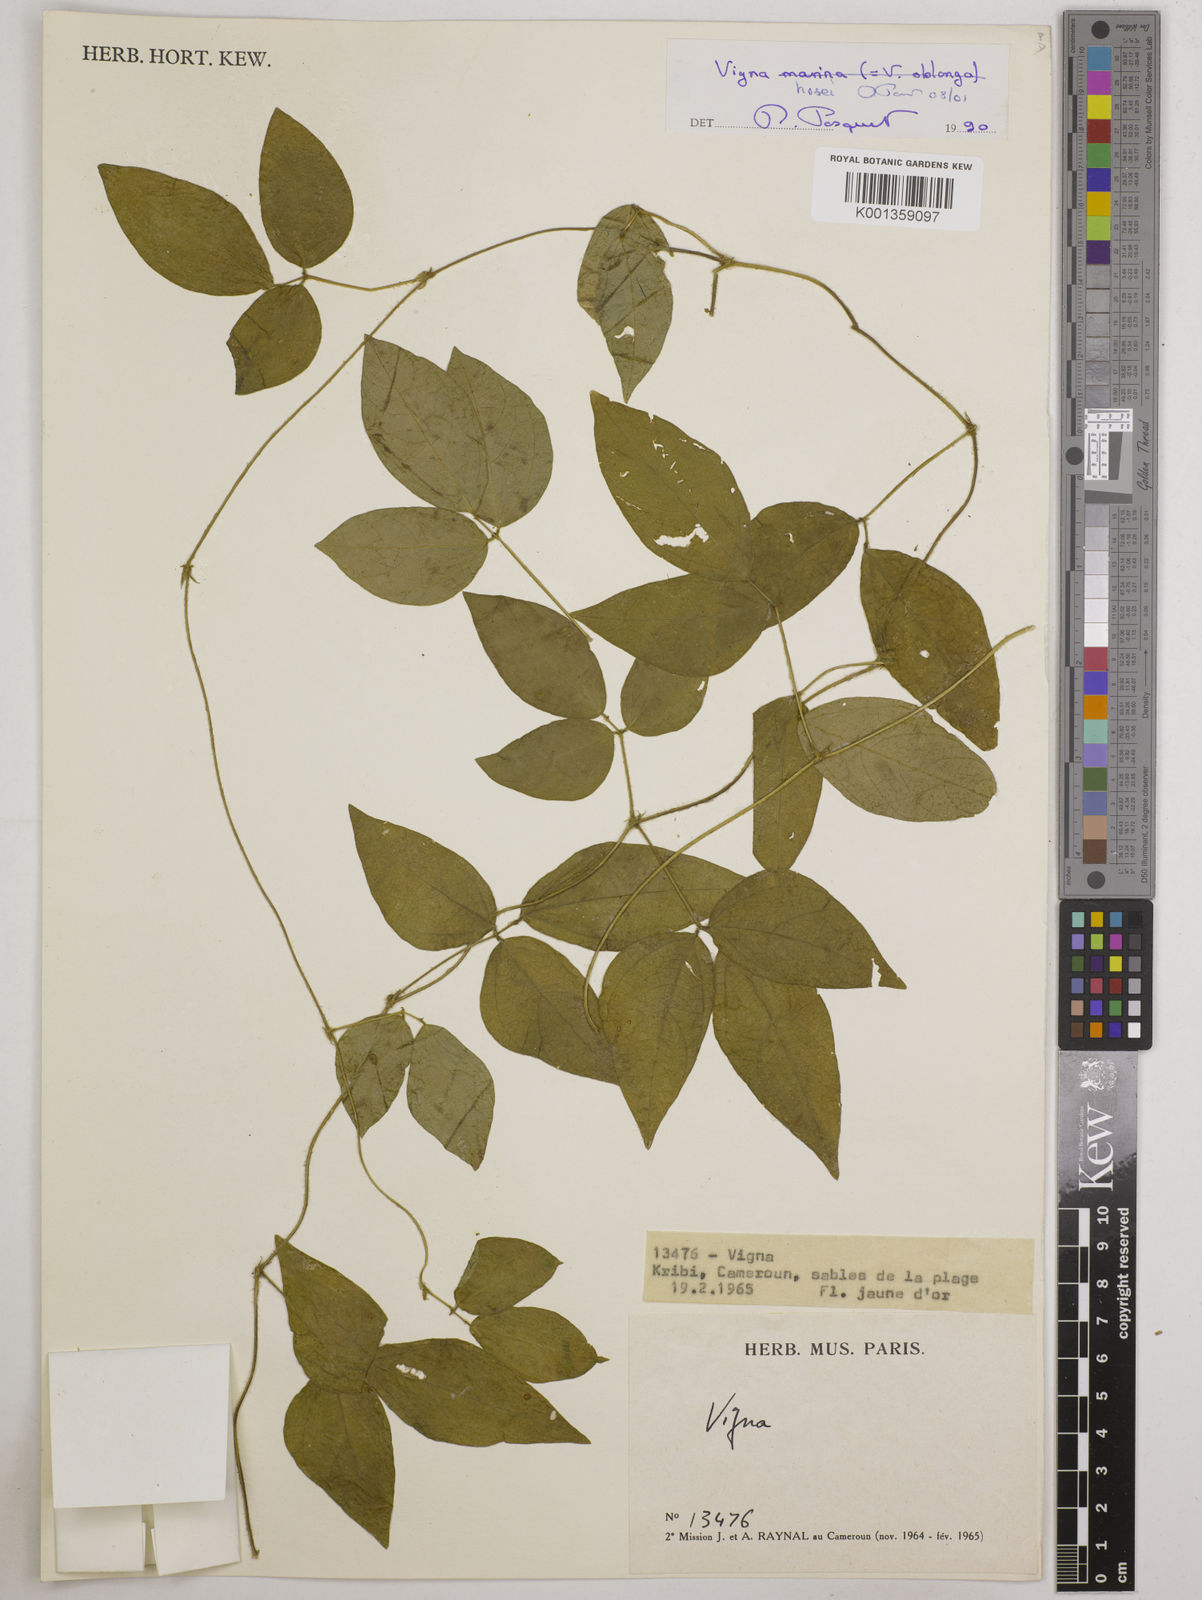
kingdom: Plantae
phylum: Tracheophyta
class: Magnoliopsida
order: Fabales
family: Fabaceae
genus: Vigna
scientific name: Vigna hosei
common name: Sarawak-bean
